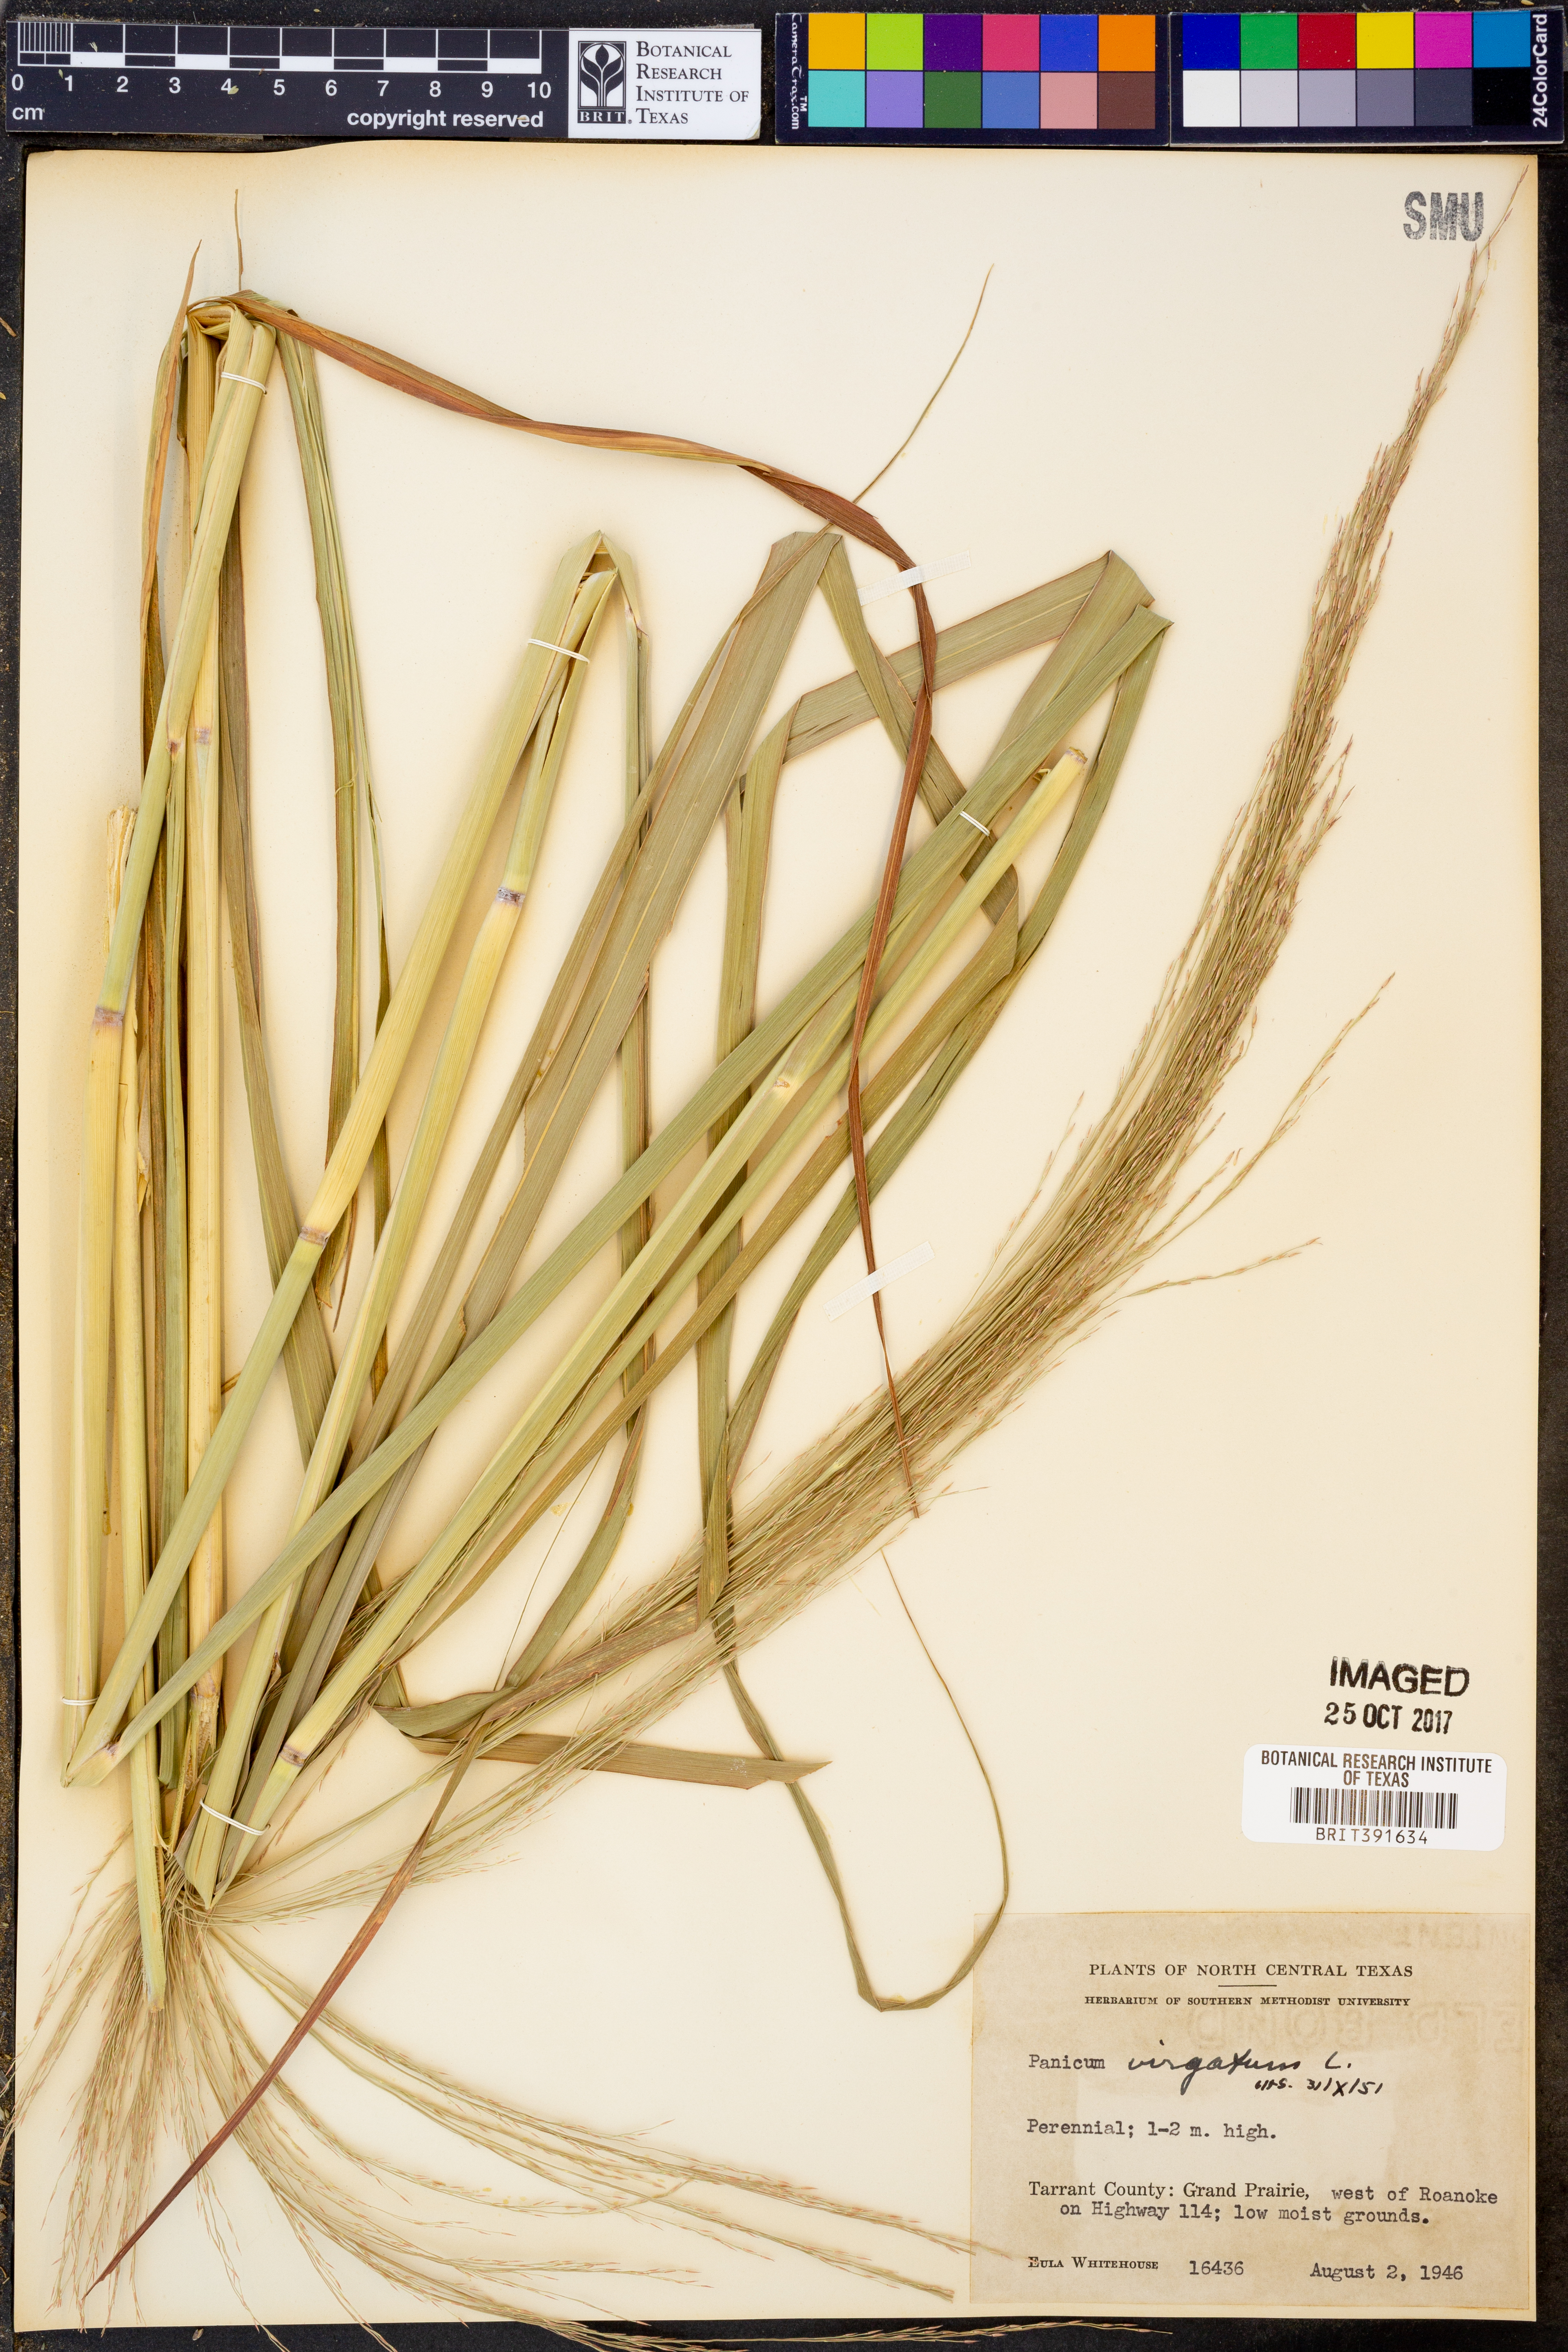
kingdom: Plantae
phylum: Tracheophyta
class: Liliopsida
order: Poales
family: Poaceae
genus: Panicum
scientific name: Panicum virgatum
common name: Switchgrass
